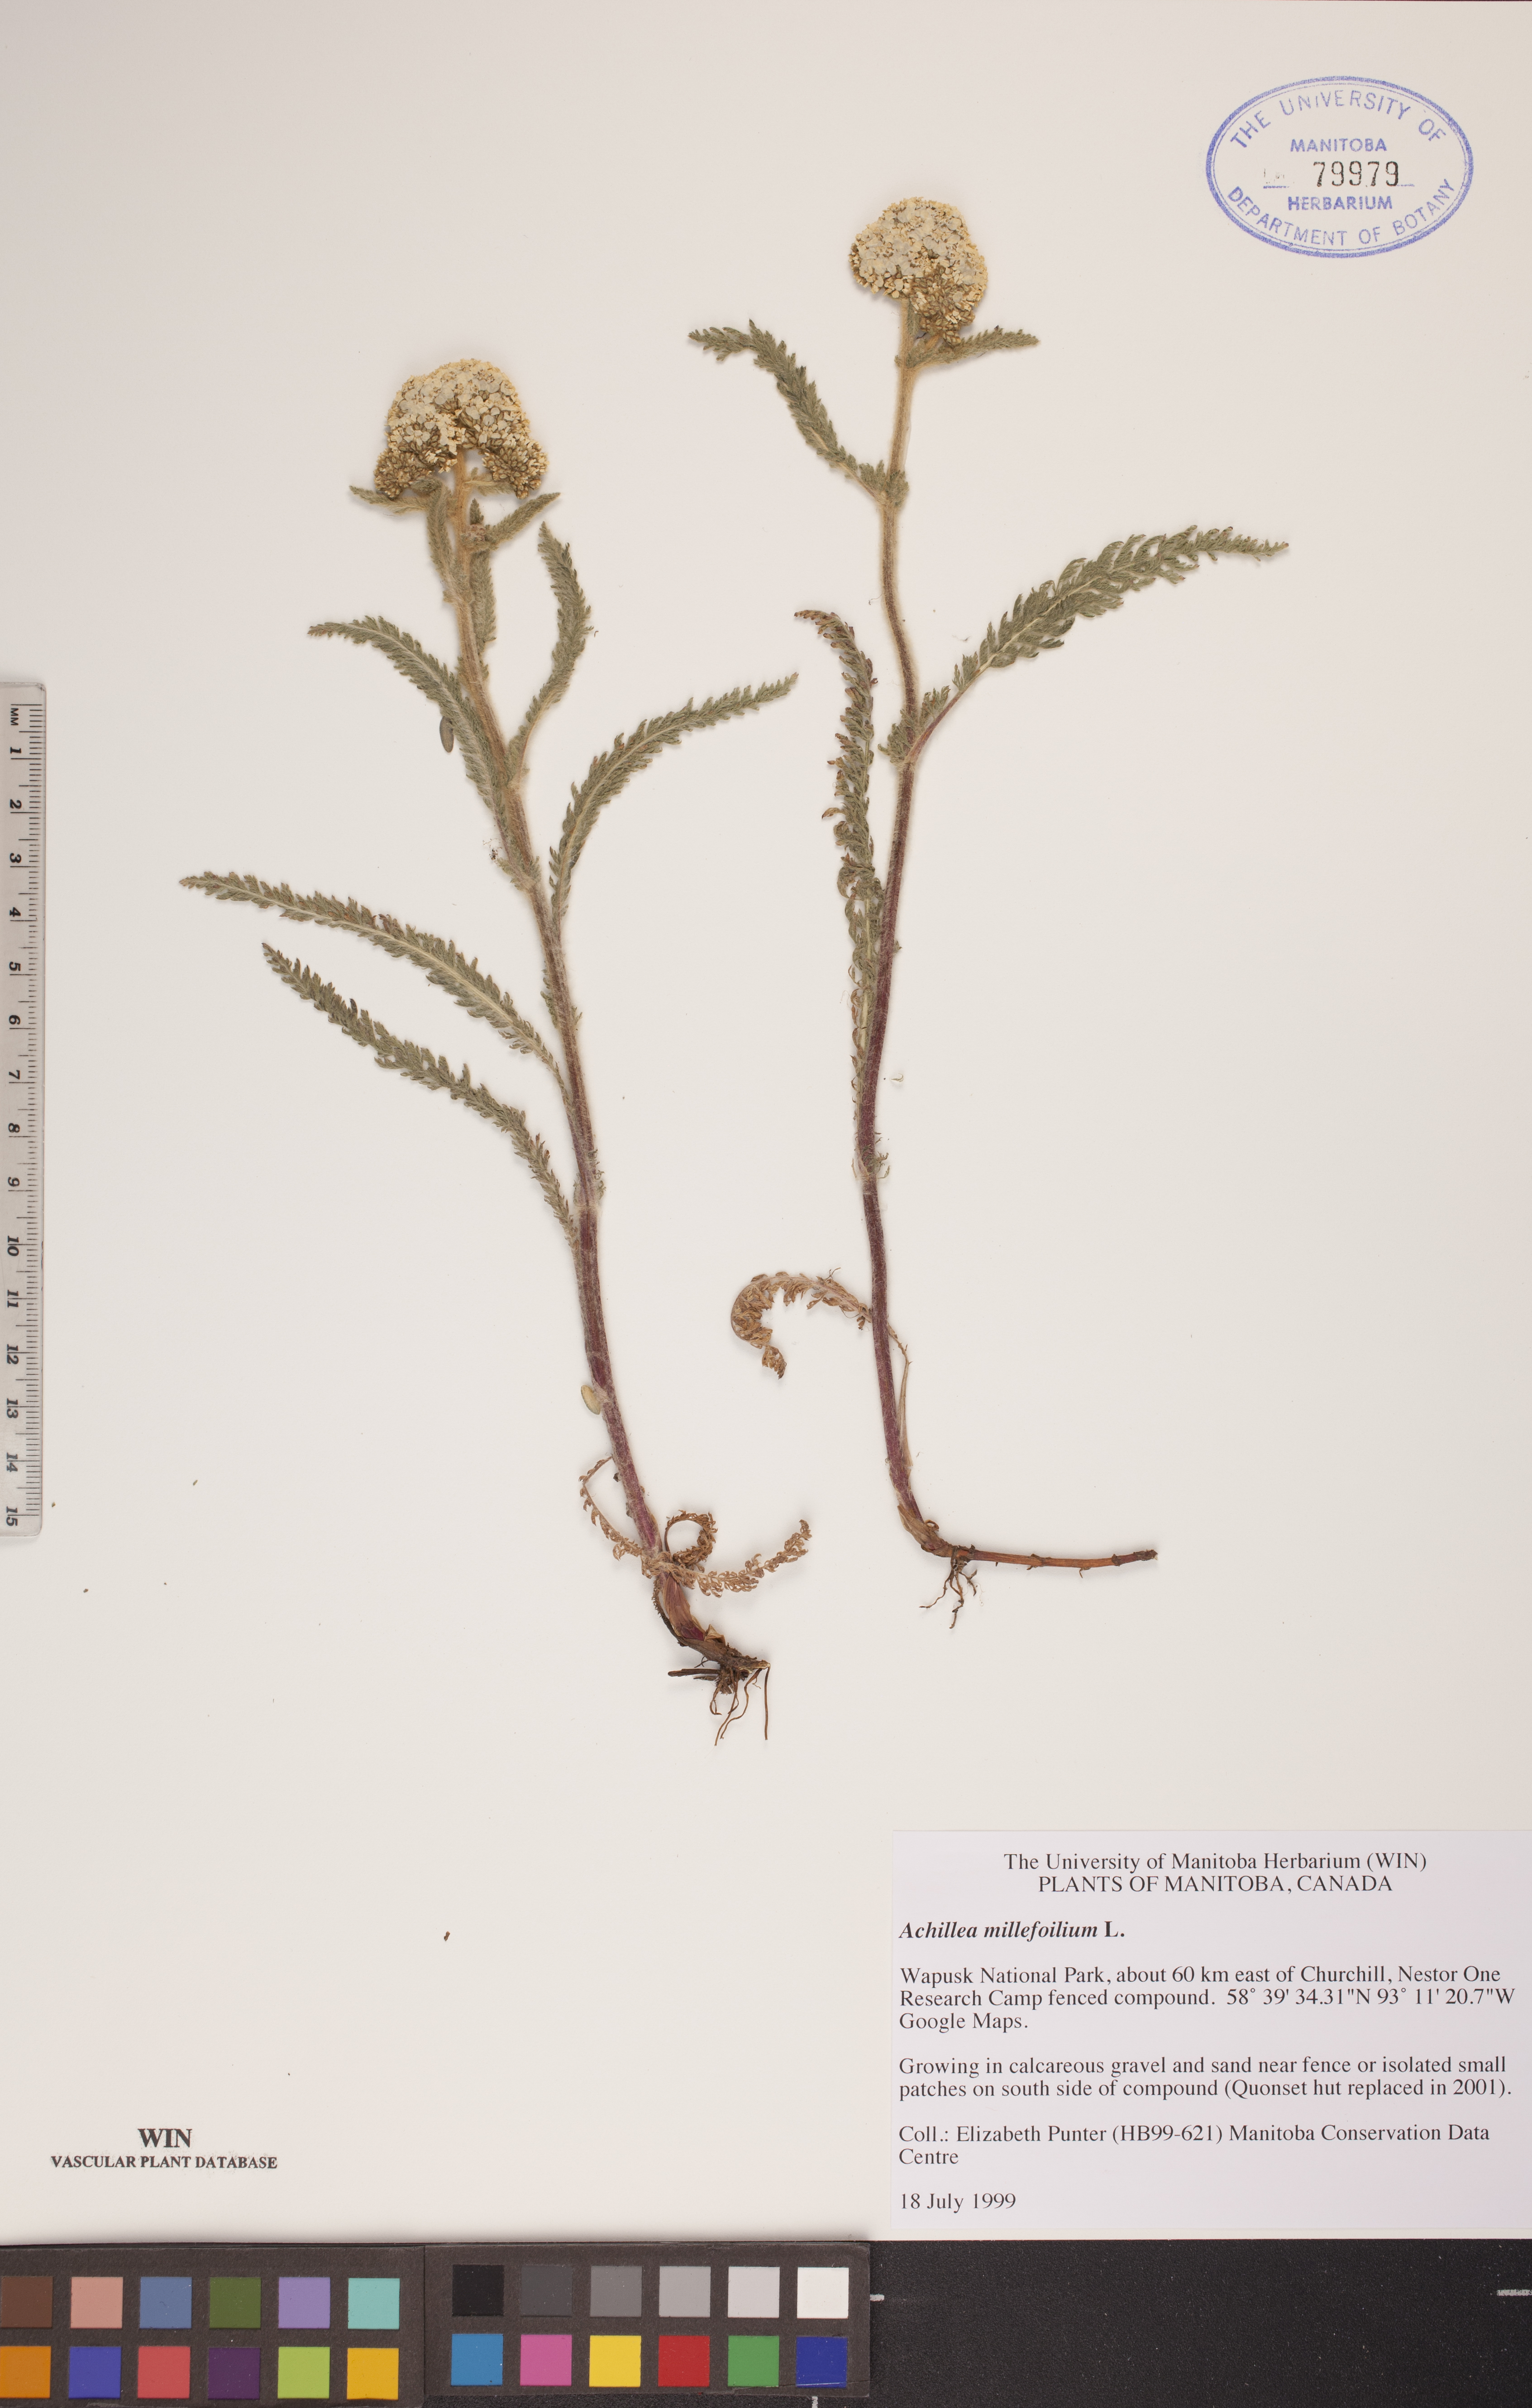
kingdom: Plantae
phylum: Tracheophyta
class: Magnoliopsida
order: Asterales
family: Asteraceae
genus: Achillea
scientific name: Achillea millefolium
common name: Yarrow
